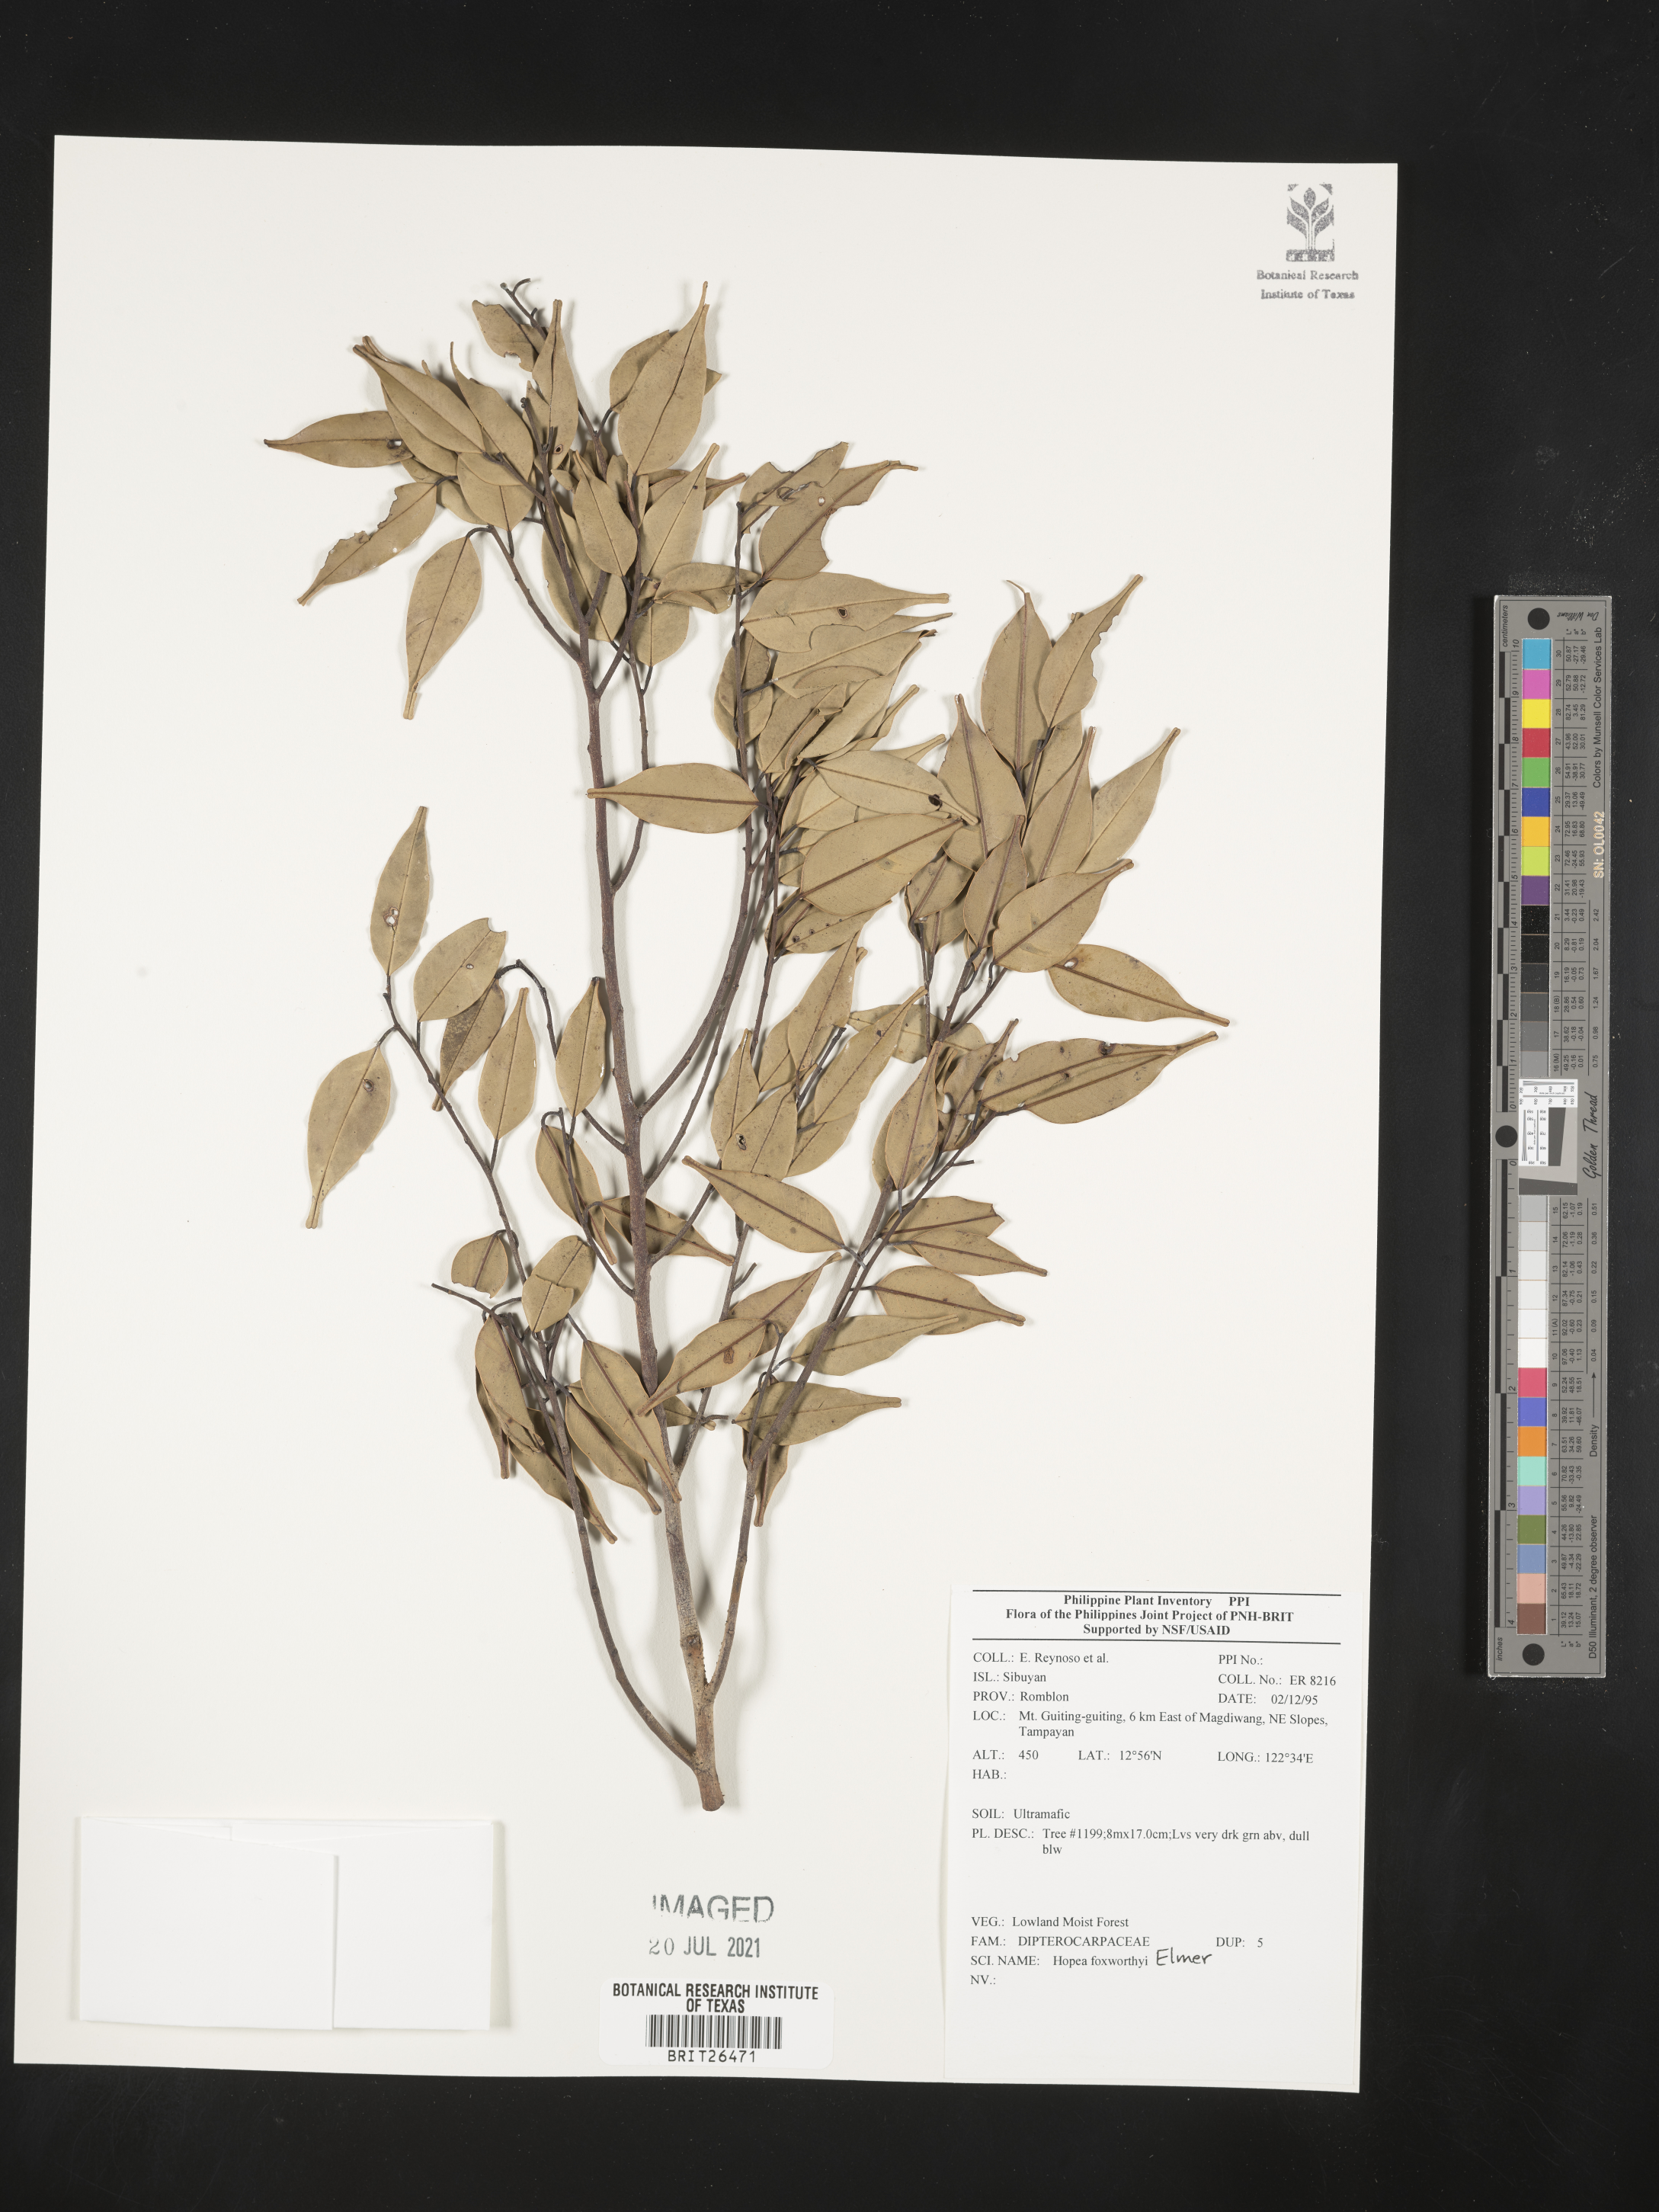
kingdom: Plantae
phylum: Tracheophyta
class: Magnoliopsida
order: Malvales
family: Dipterocarpaceae
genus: Hopea
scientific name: Hopea foxworthyi
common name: Dalingdingan
